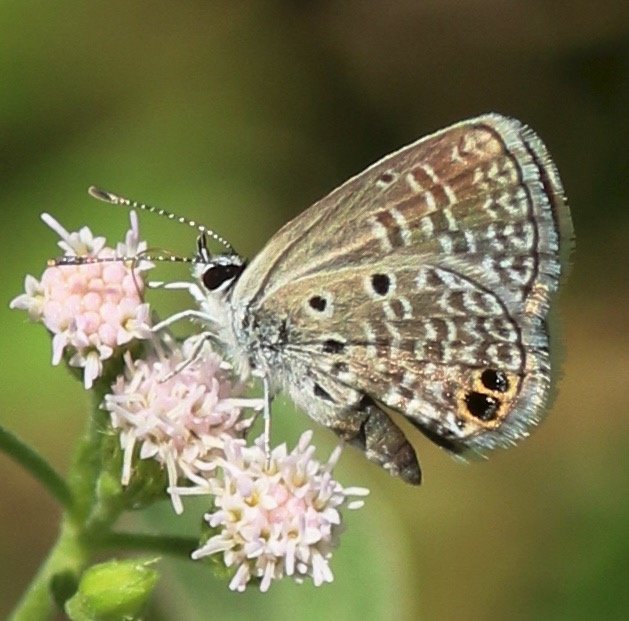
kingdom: Animalia
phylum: Arthropoda
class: Insecta
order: Lepidoptera
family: Lycaenidae
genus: Hemiargus
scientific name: Hemiargus ceraunus
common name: Ceraunus Blue
